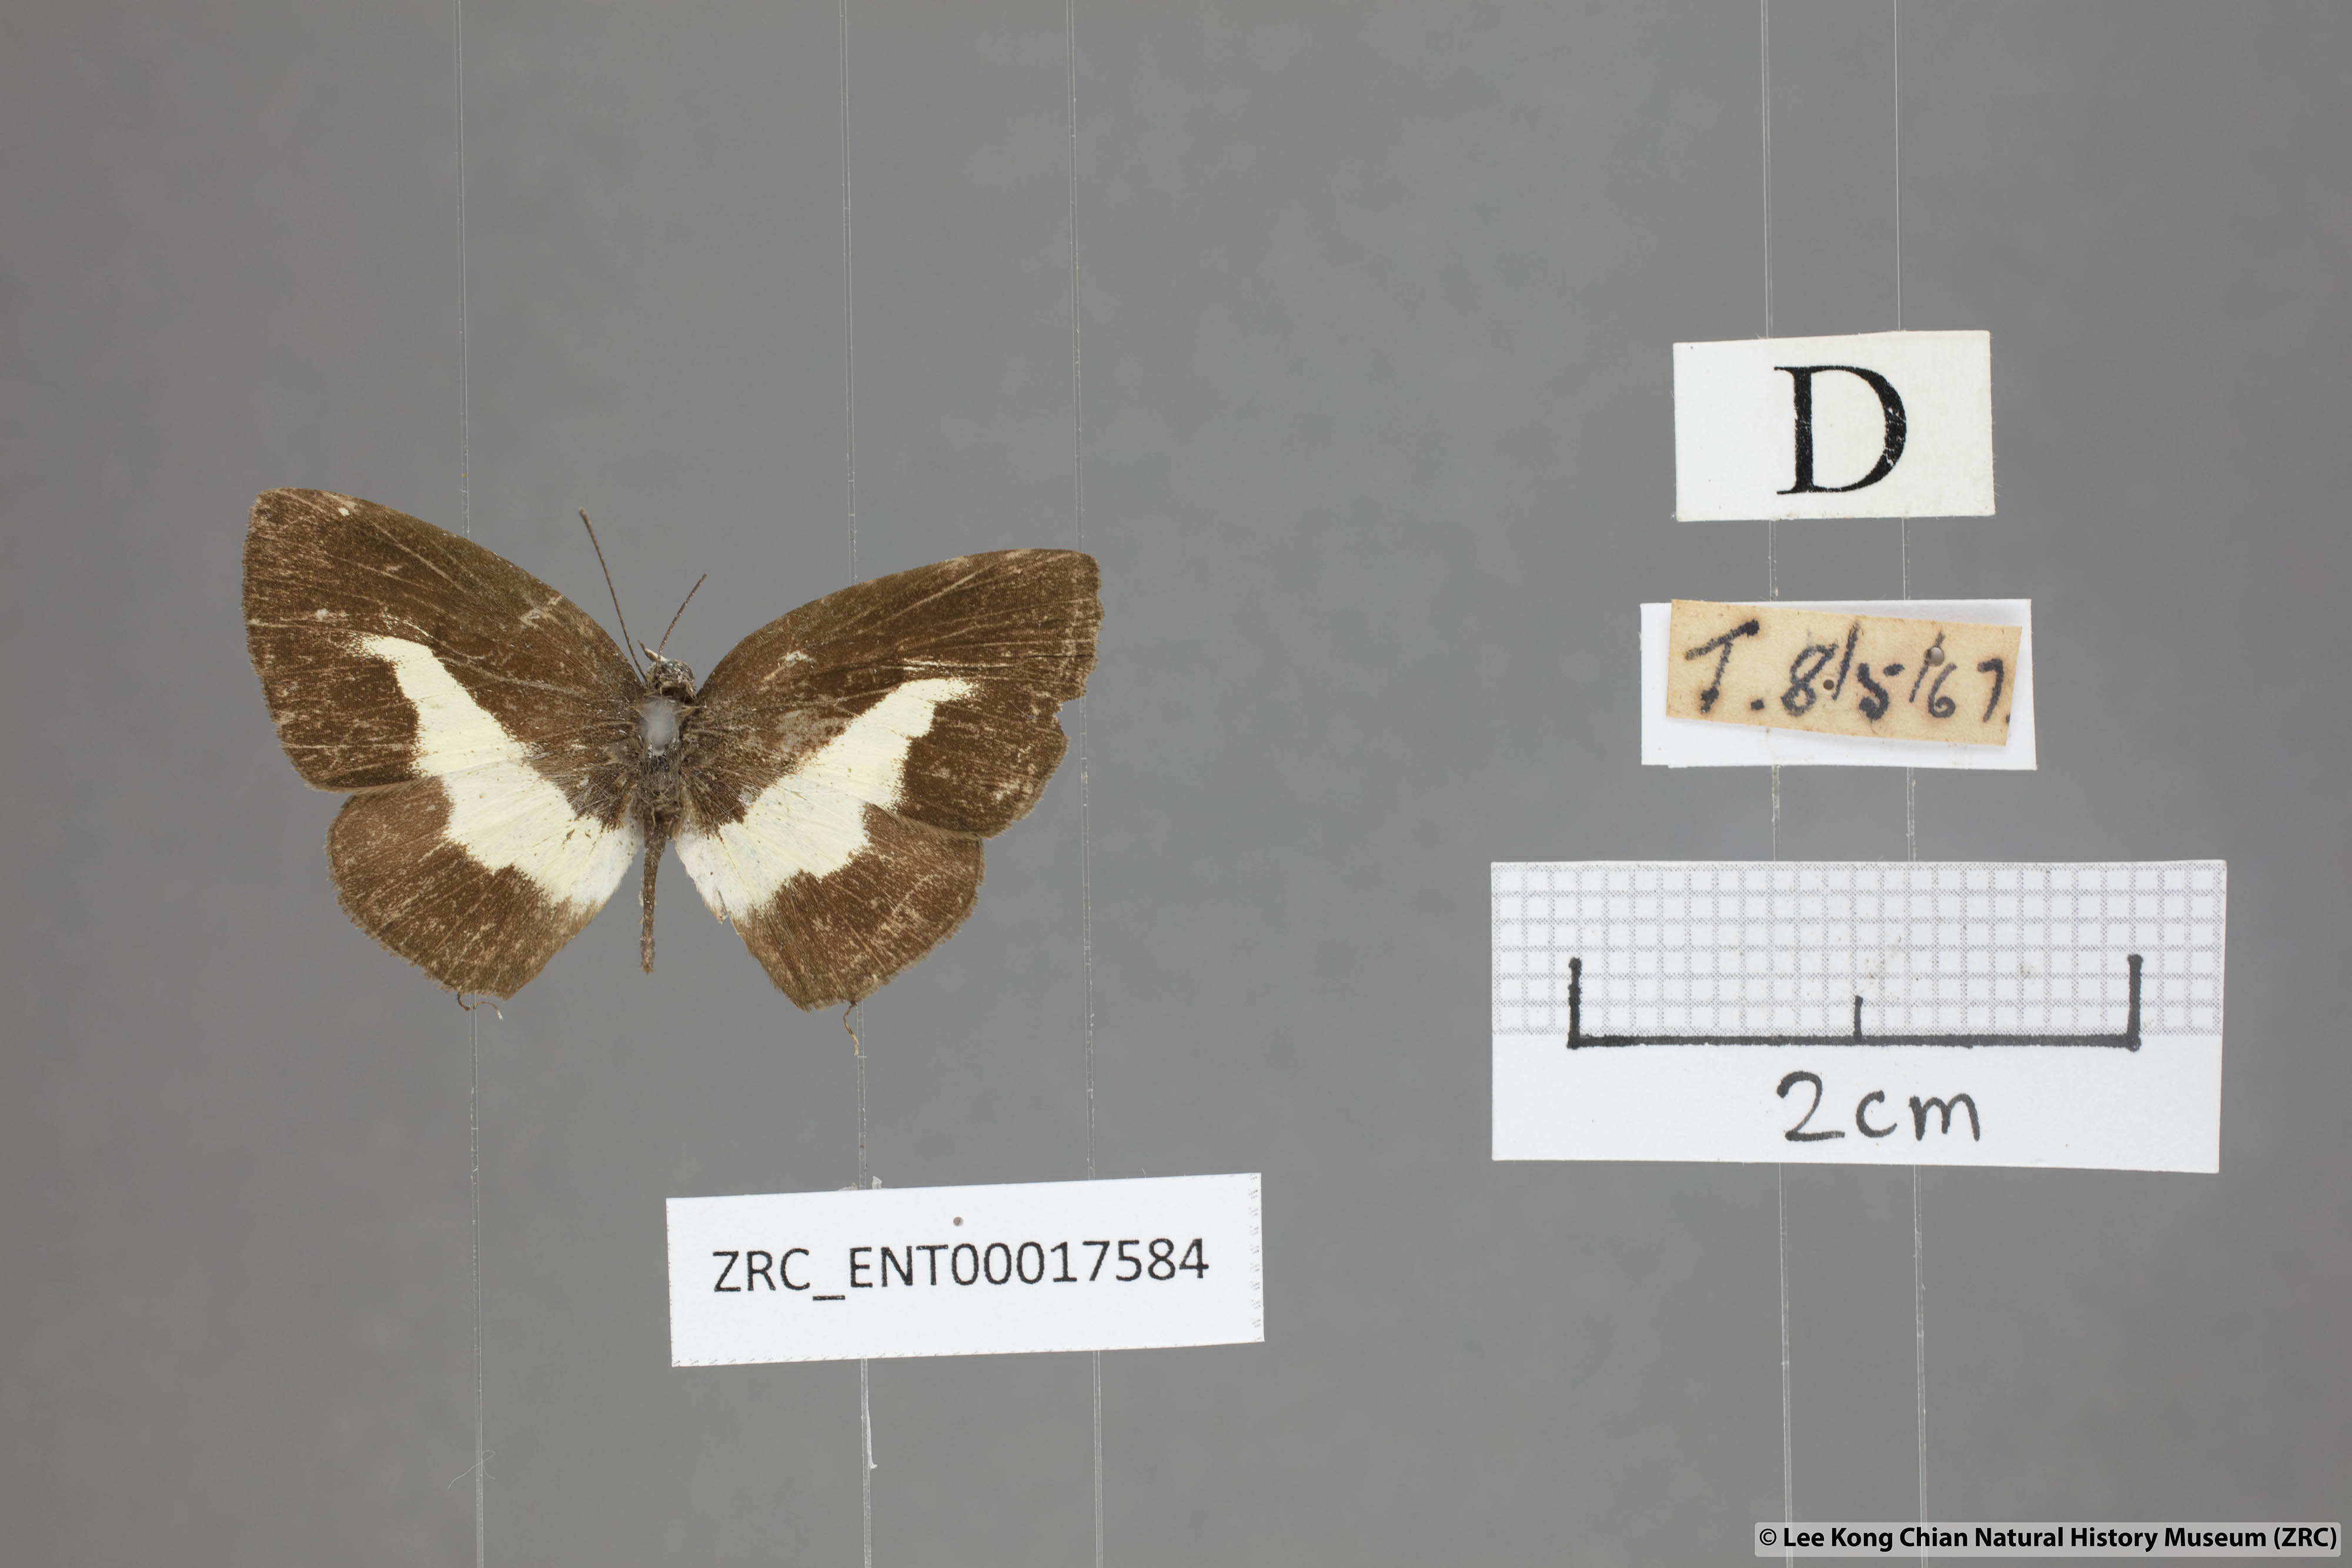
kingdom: Animalia
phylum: Arthropoda
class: Insecta
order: Lepidoptera
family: Lycaenidae
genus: Caleta
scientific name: Caleta elna
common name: Elbowed pierrot
